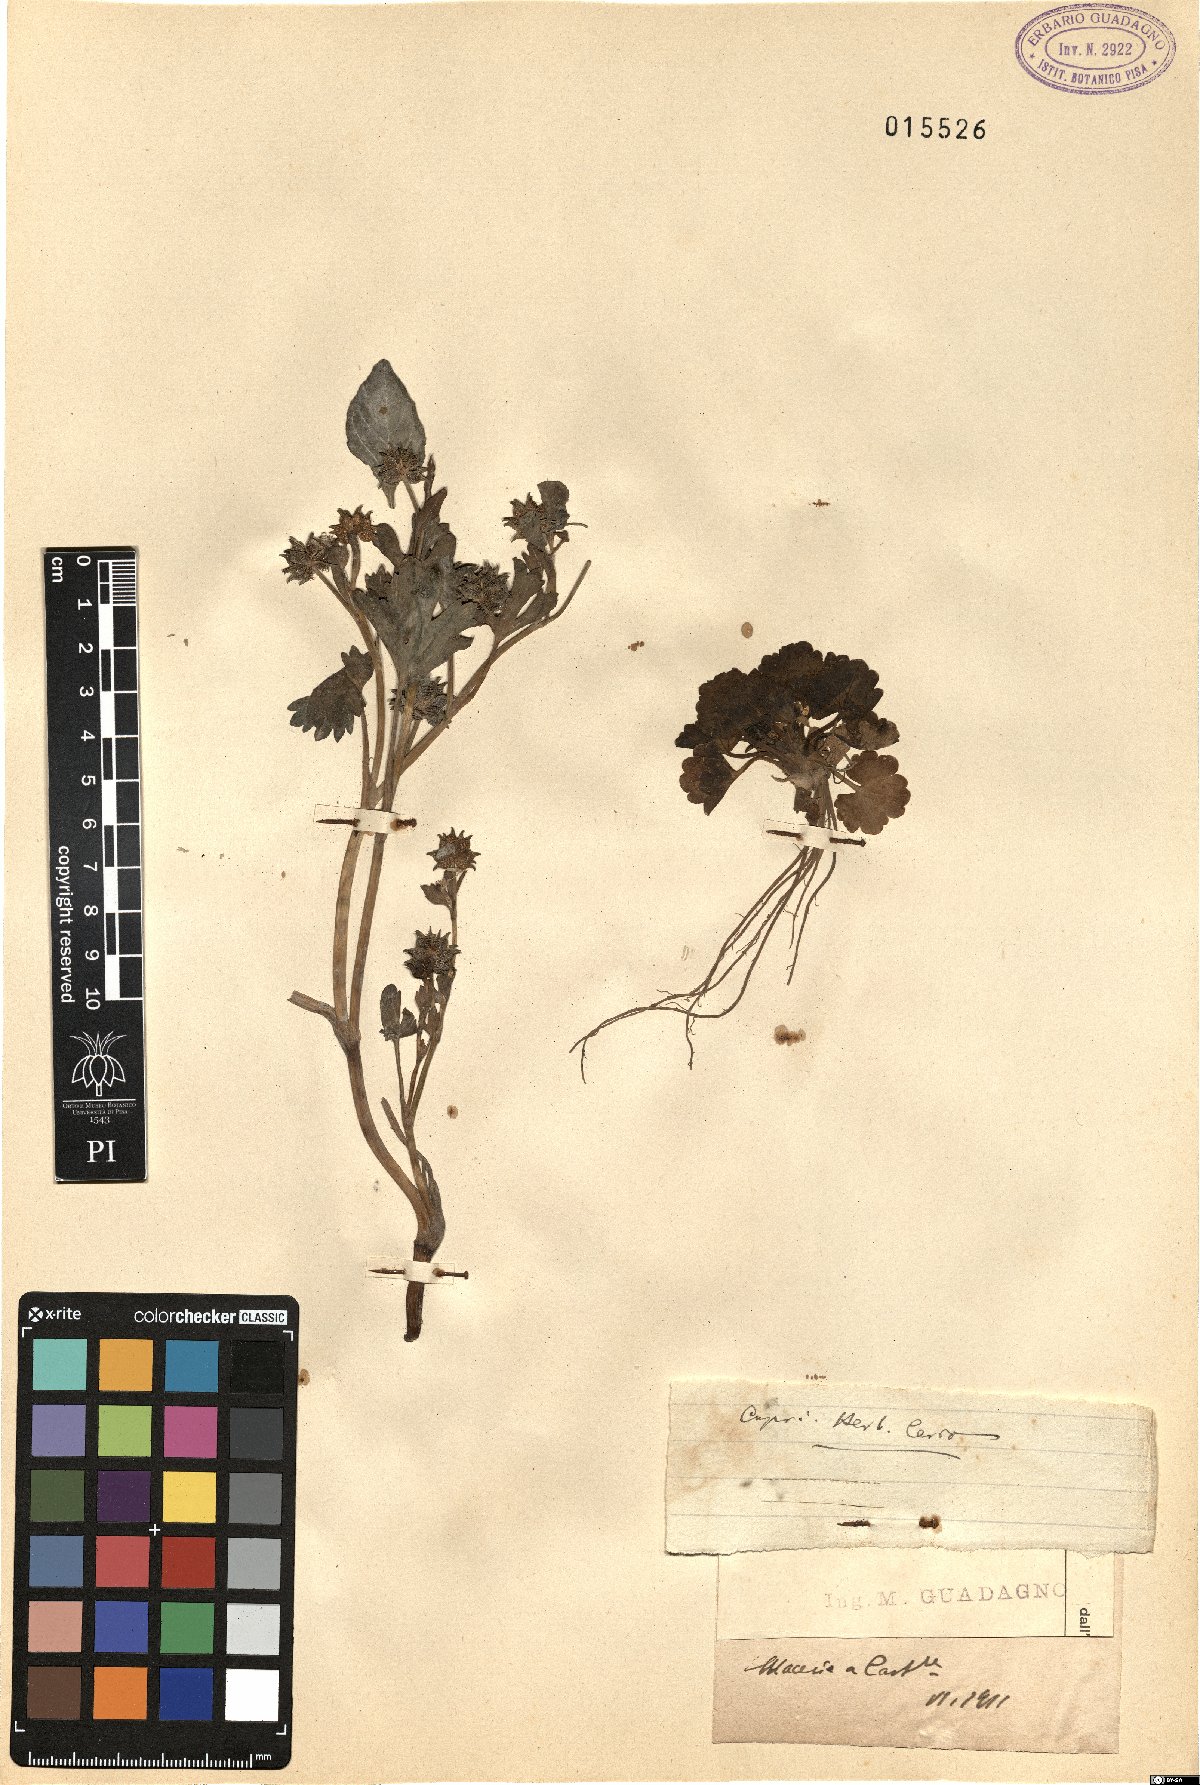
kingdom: Plantae
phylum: Tracheophyta
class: Magnoliopsida
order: Ranunculales
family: Ranunculaceae
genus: Ranunculus
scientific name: Ranunculus
